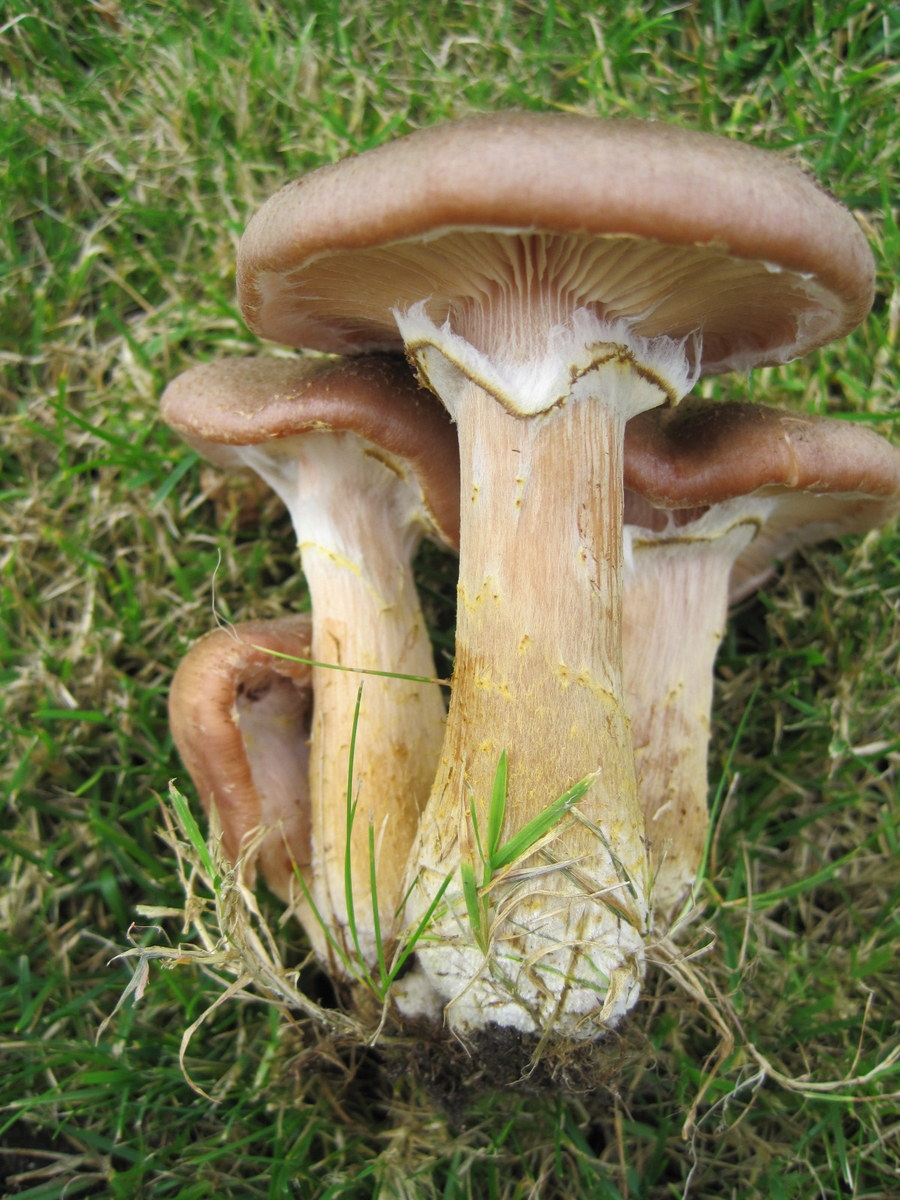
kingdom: Fungi
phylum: Basidiomycota
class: Agaricomycetes
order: Agaricales
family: Physalacriaceae
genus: Armillaria
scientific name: Armillaria lutea
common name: køllestokket honningsvamp
